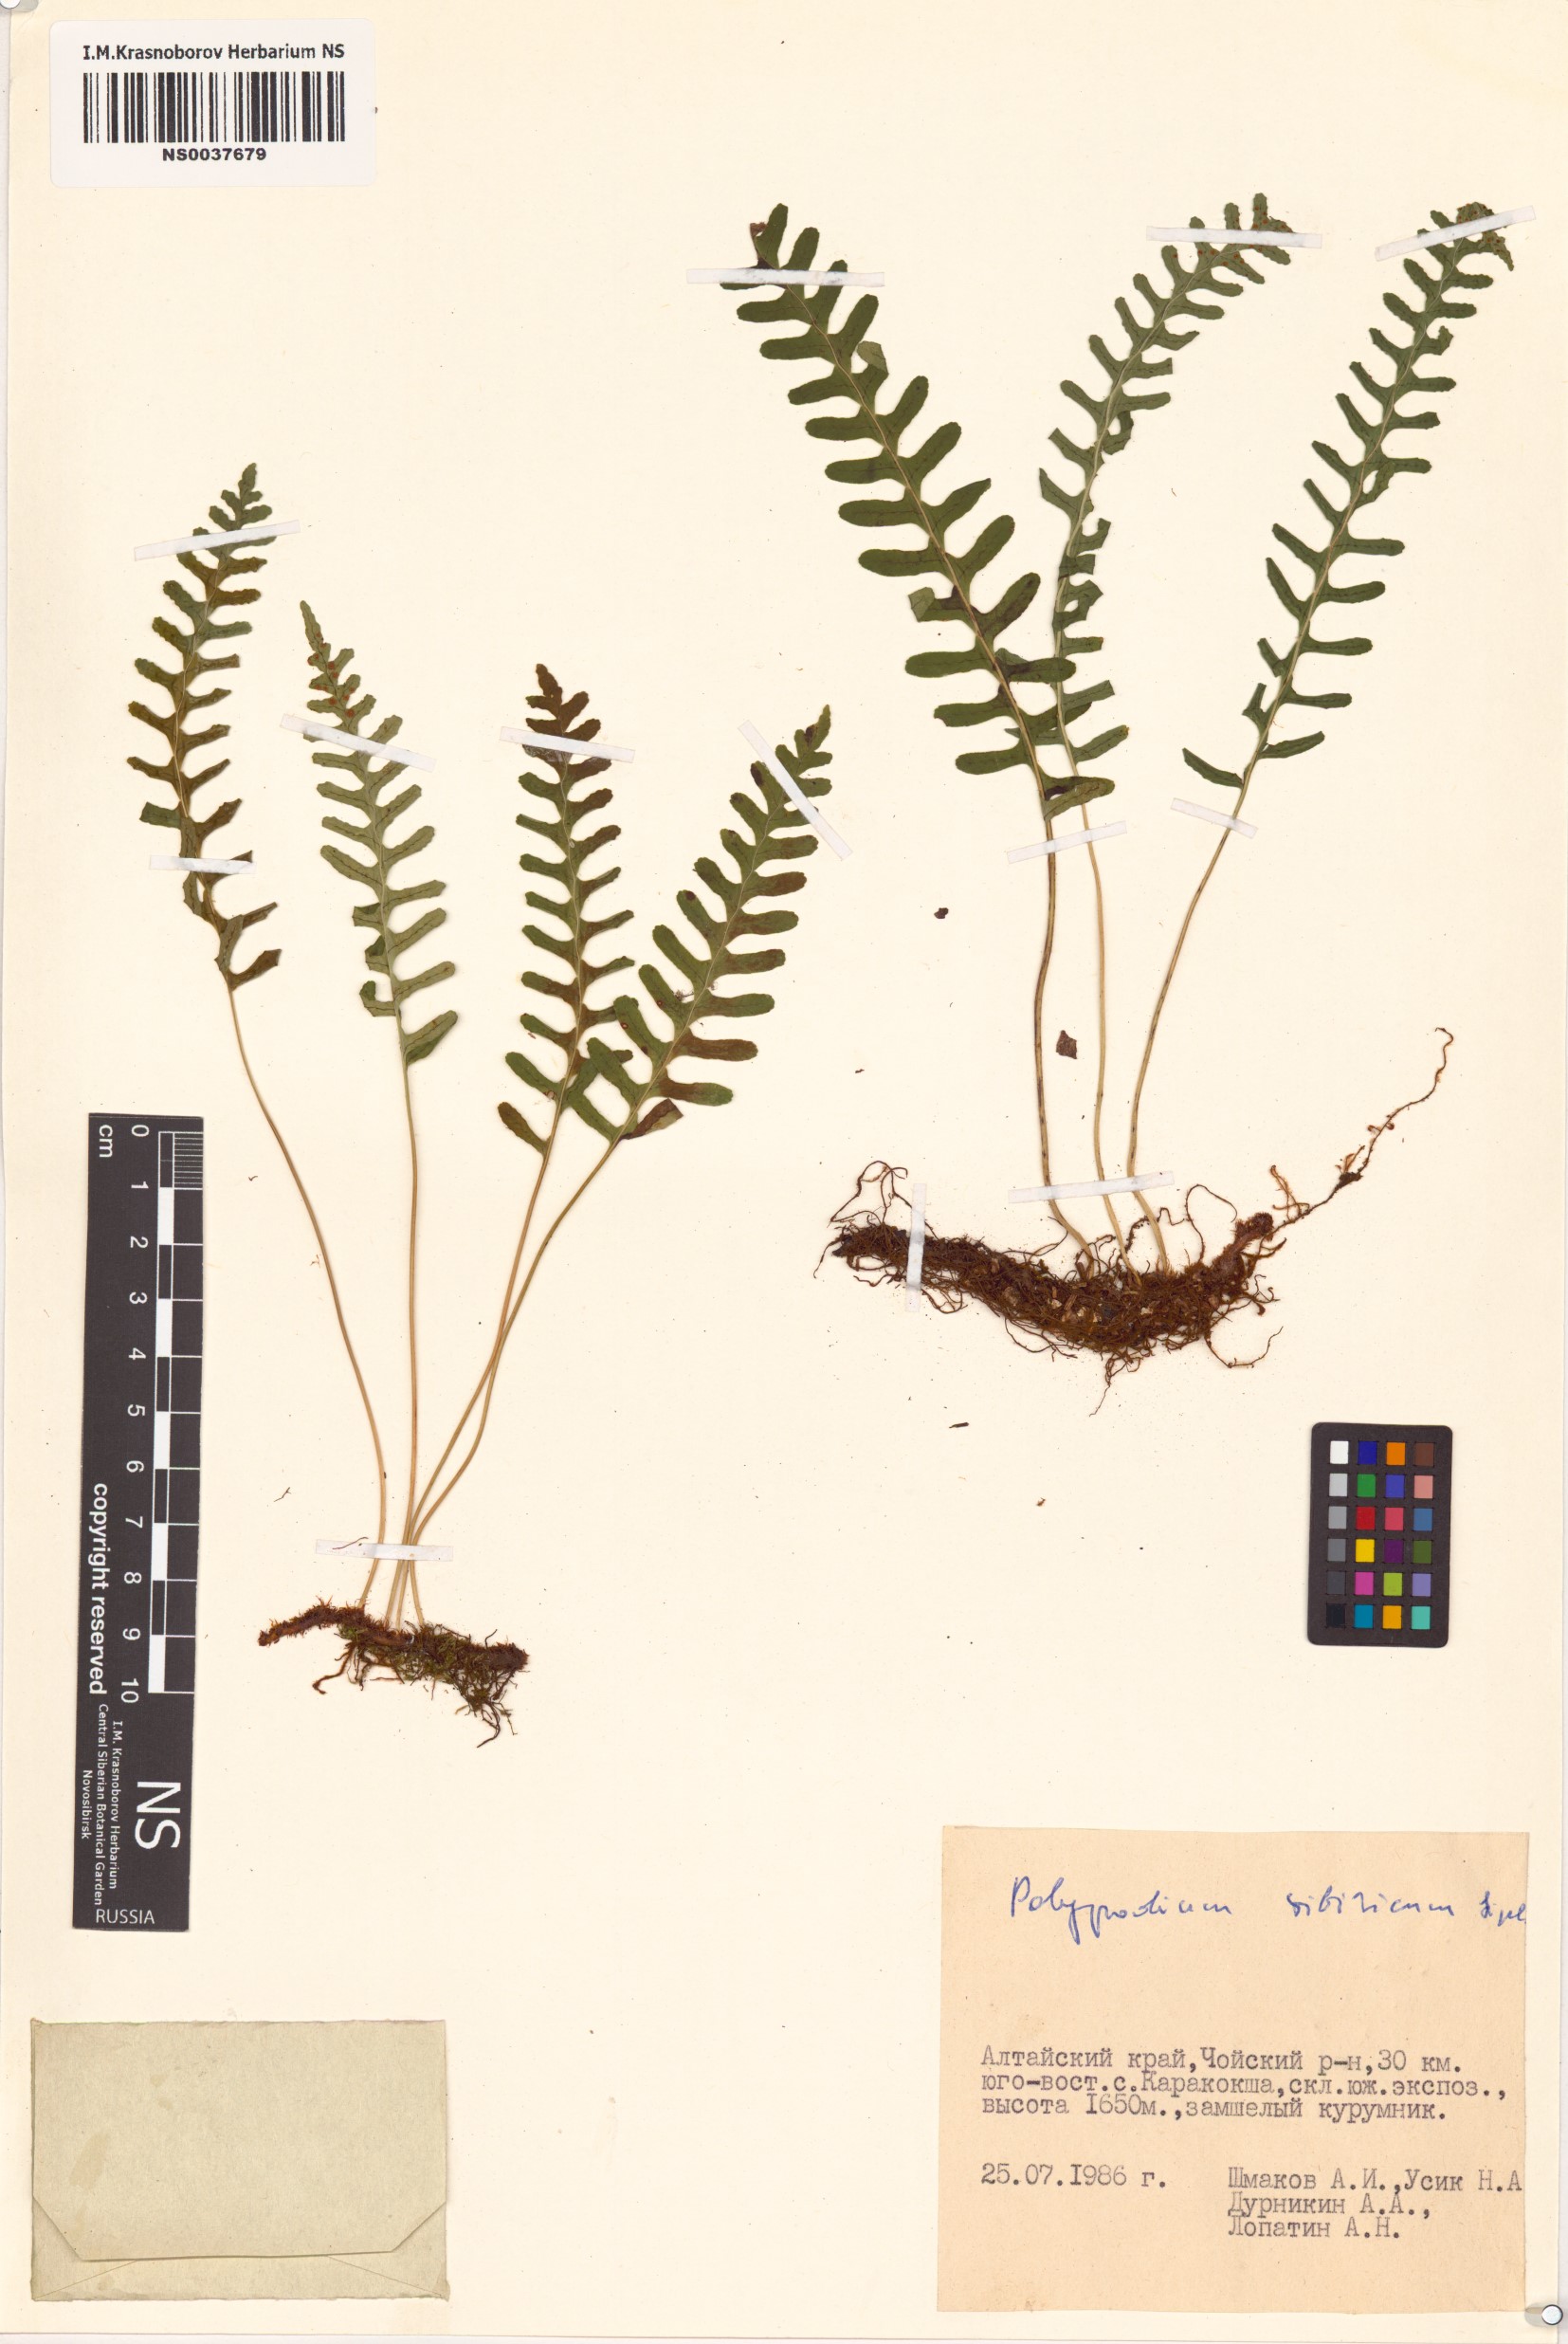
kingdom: Plantae
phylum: Tracheophyta
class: Polypodiopsida
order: Polypodiales
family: Polypodiaceae
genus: Polypodium
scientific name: Polypodium sibiricum
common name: Siberian polypody
